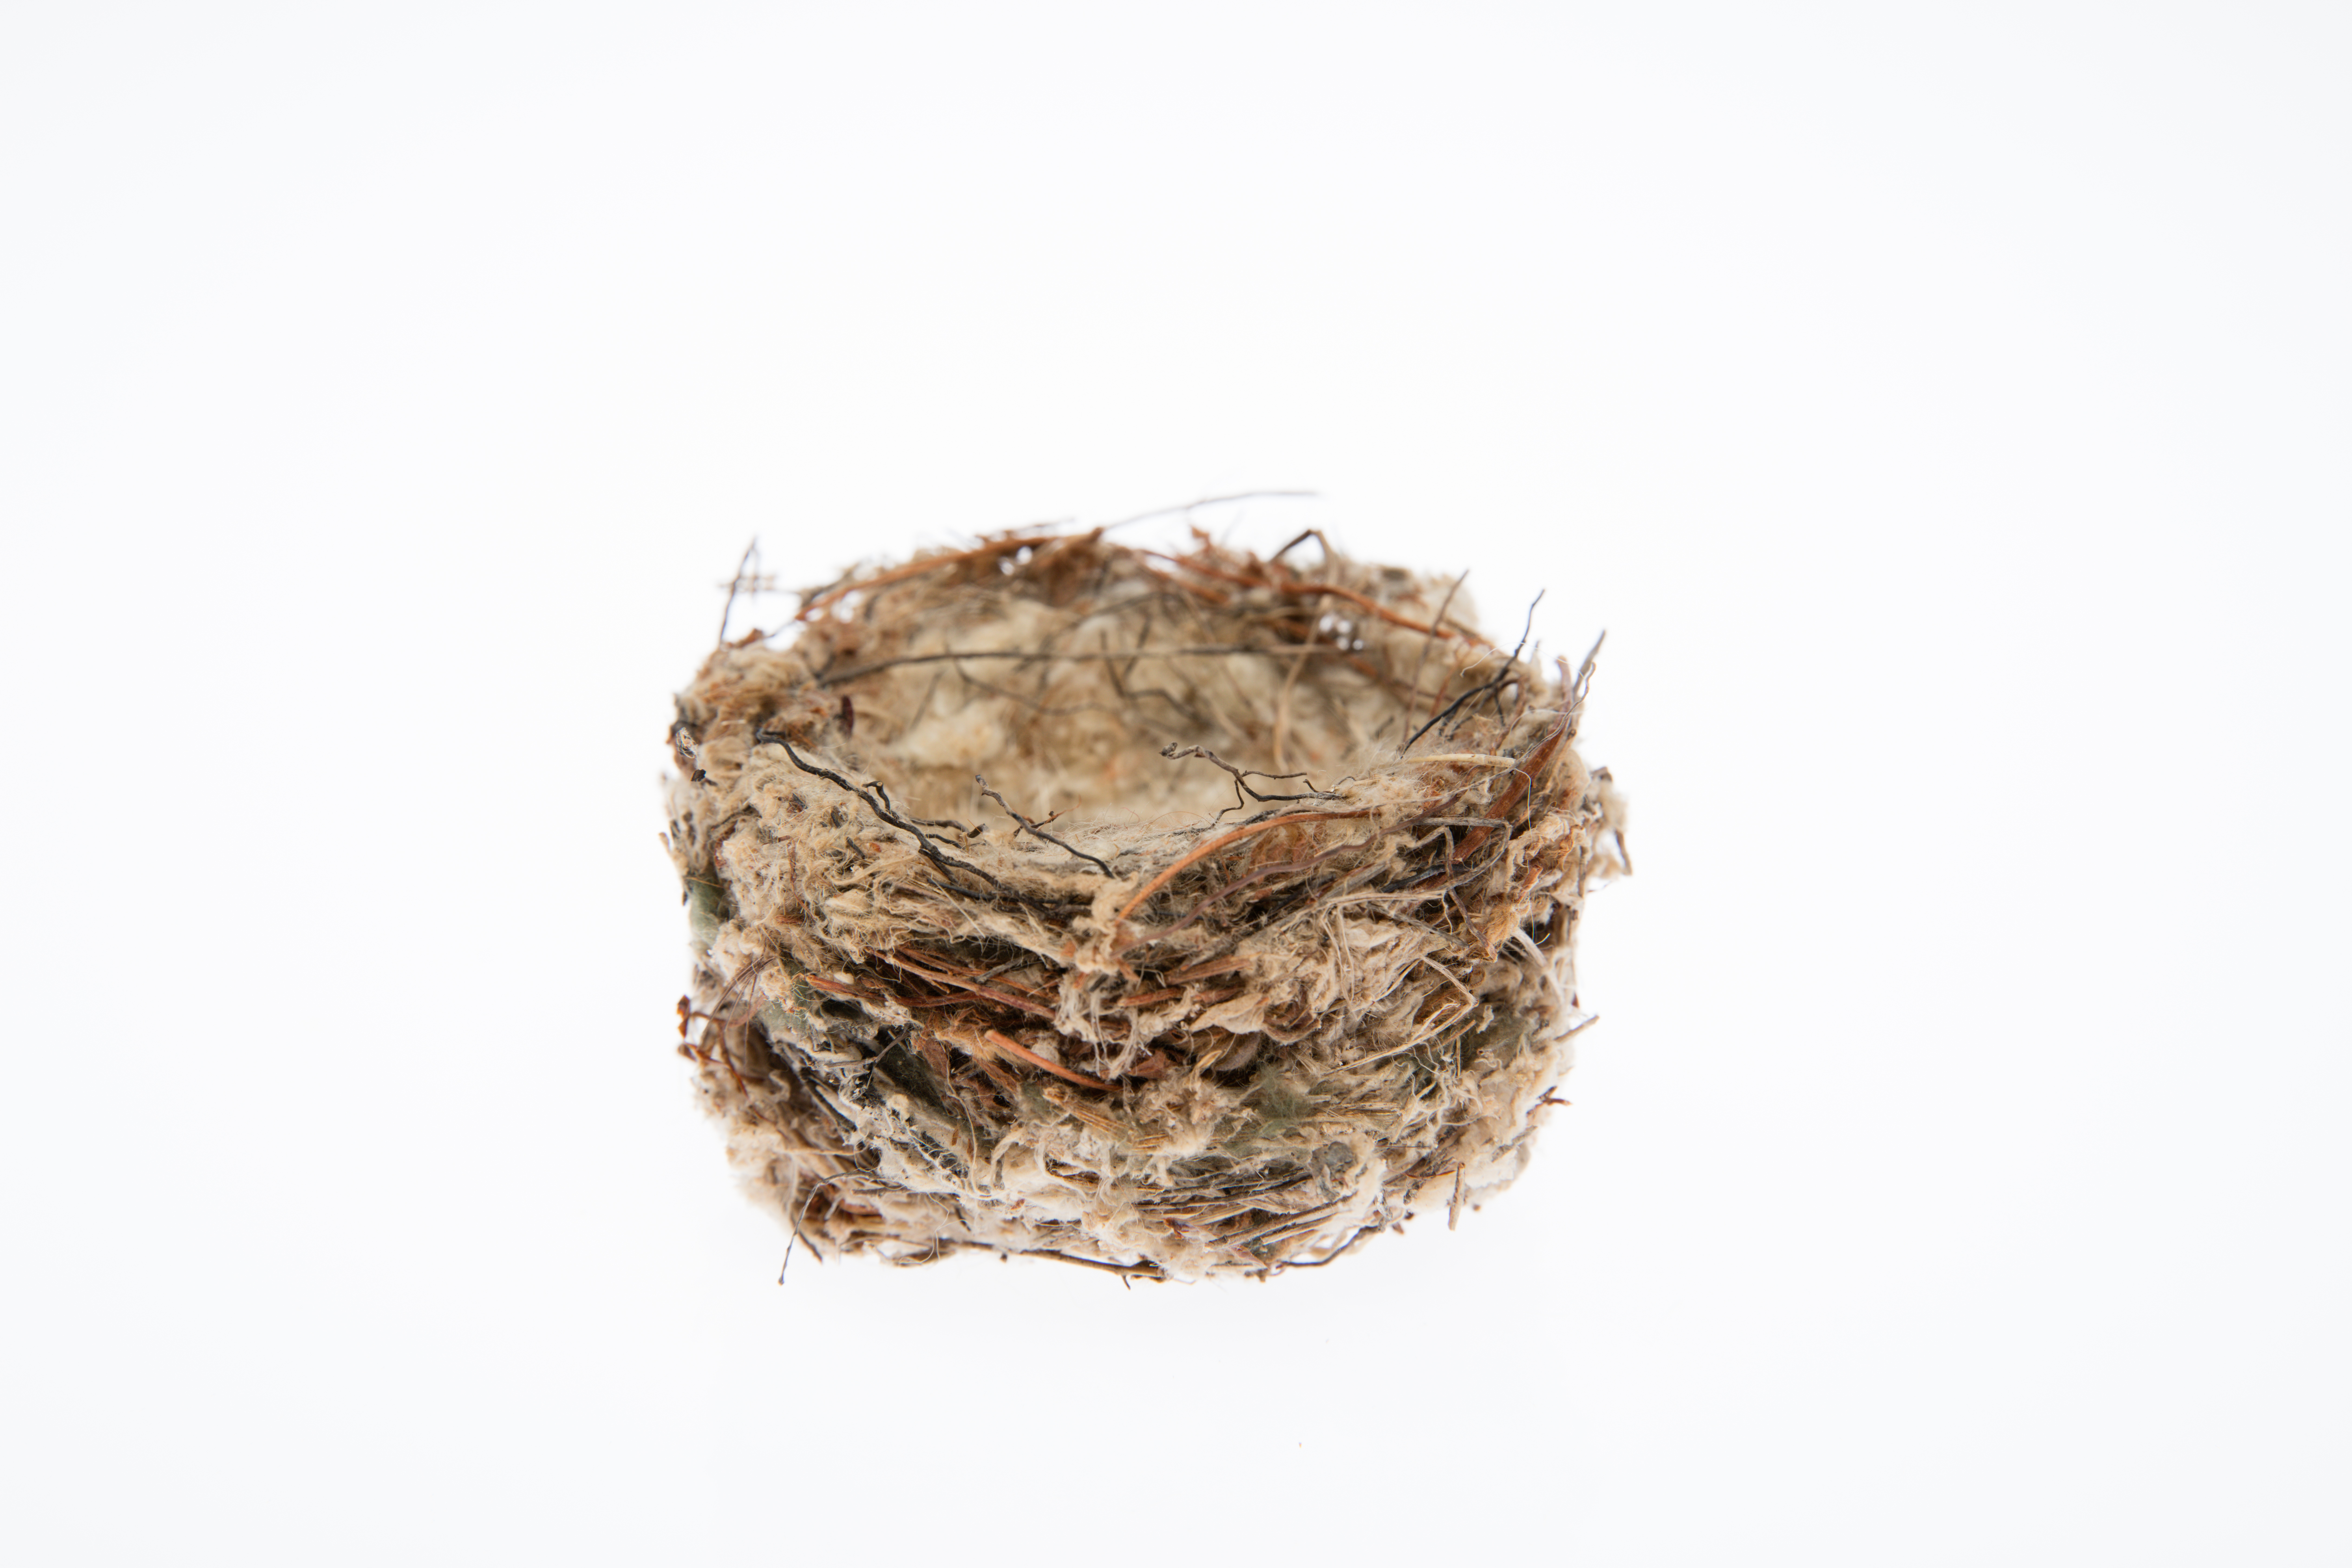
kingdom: Animalia
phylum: Chordata
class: Aves
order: Passeriformes
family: Fringillidae
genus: Carduelis
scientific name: Carduelis carduelis
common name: European goldfinch
